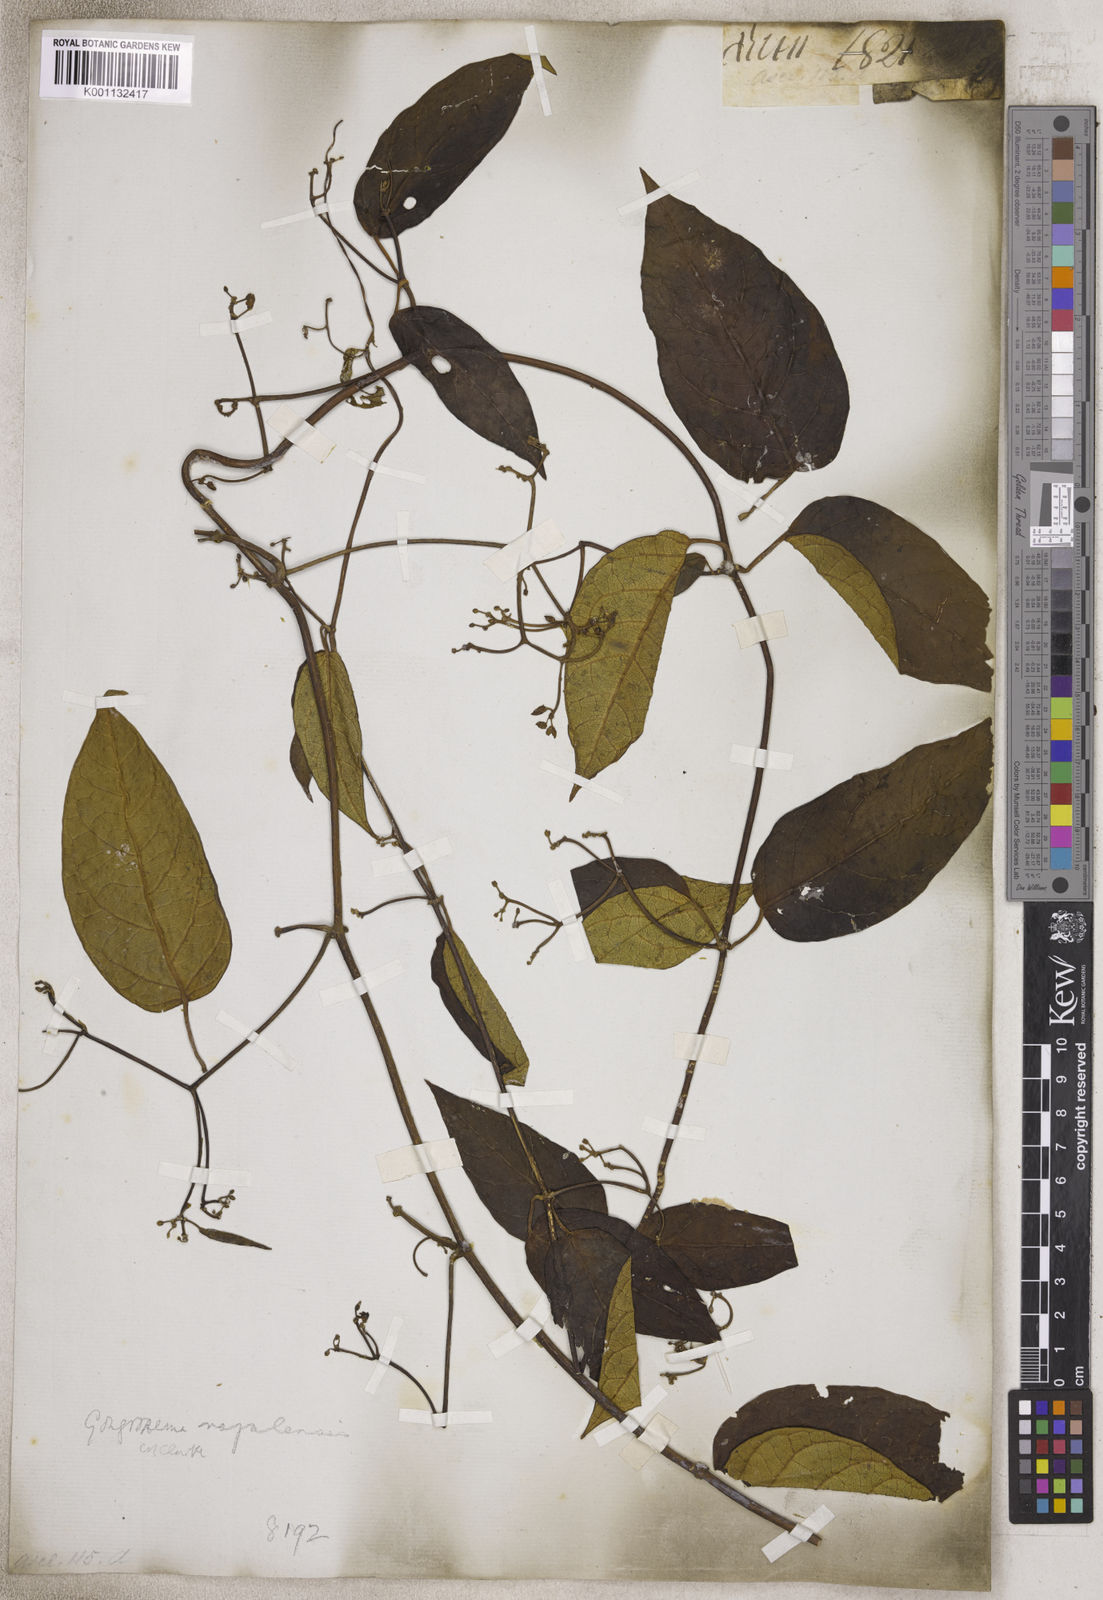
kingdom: Plantae
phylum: Tracheophyta
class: Magnoliopsida
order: Gentianales
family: Apocynaceae
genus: Gongronema
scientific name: Gongronema
